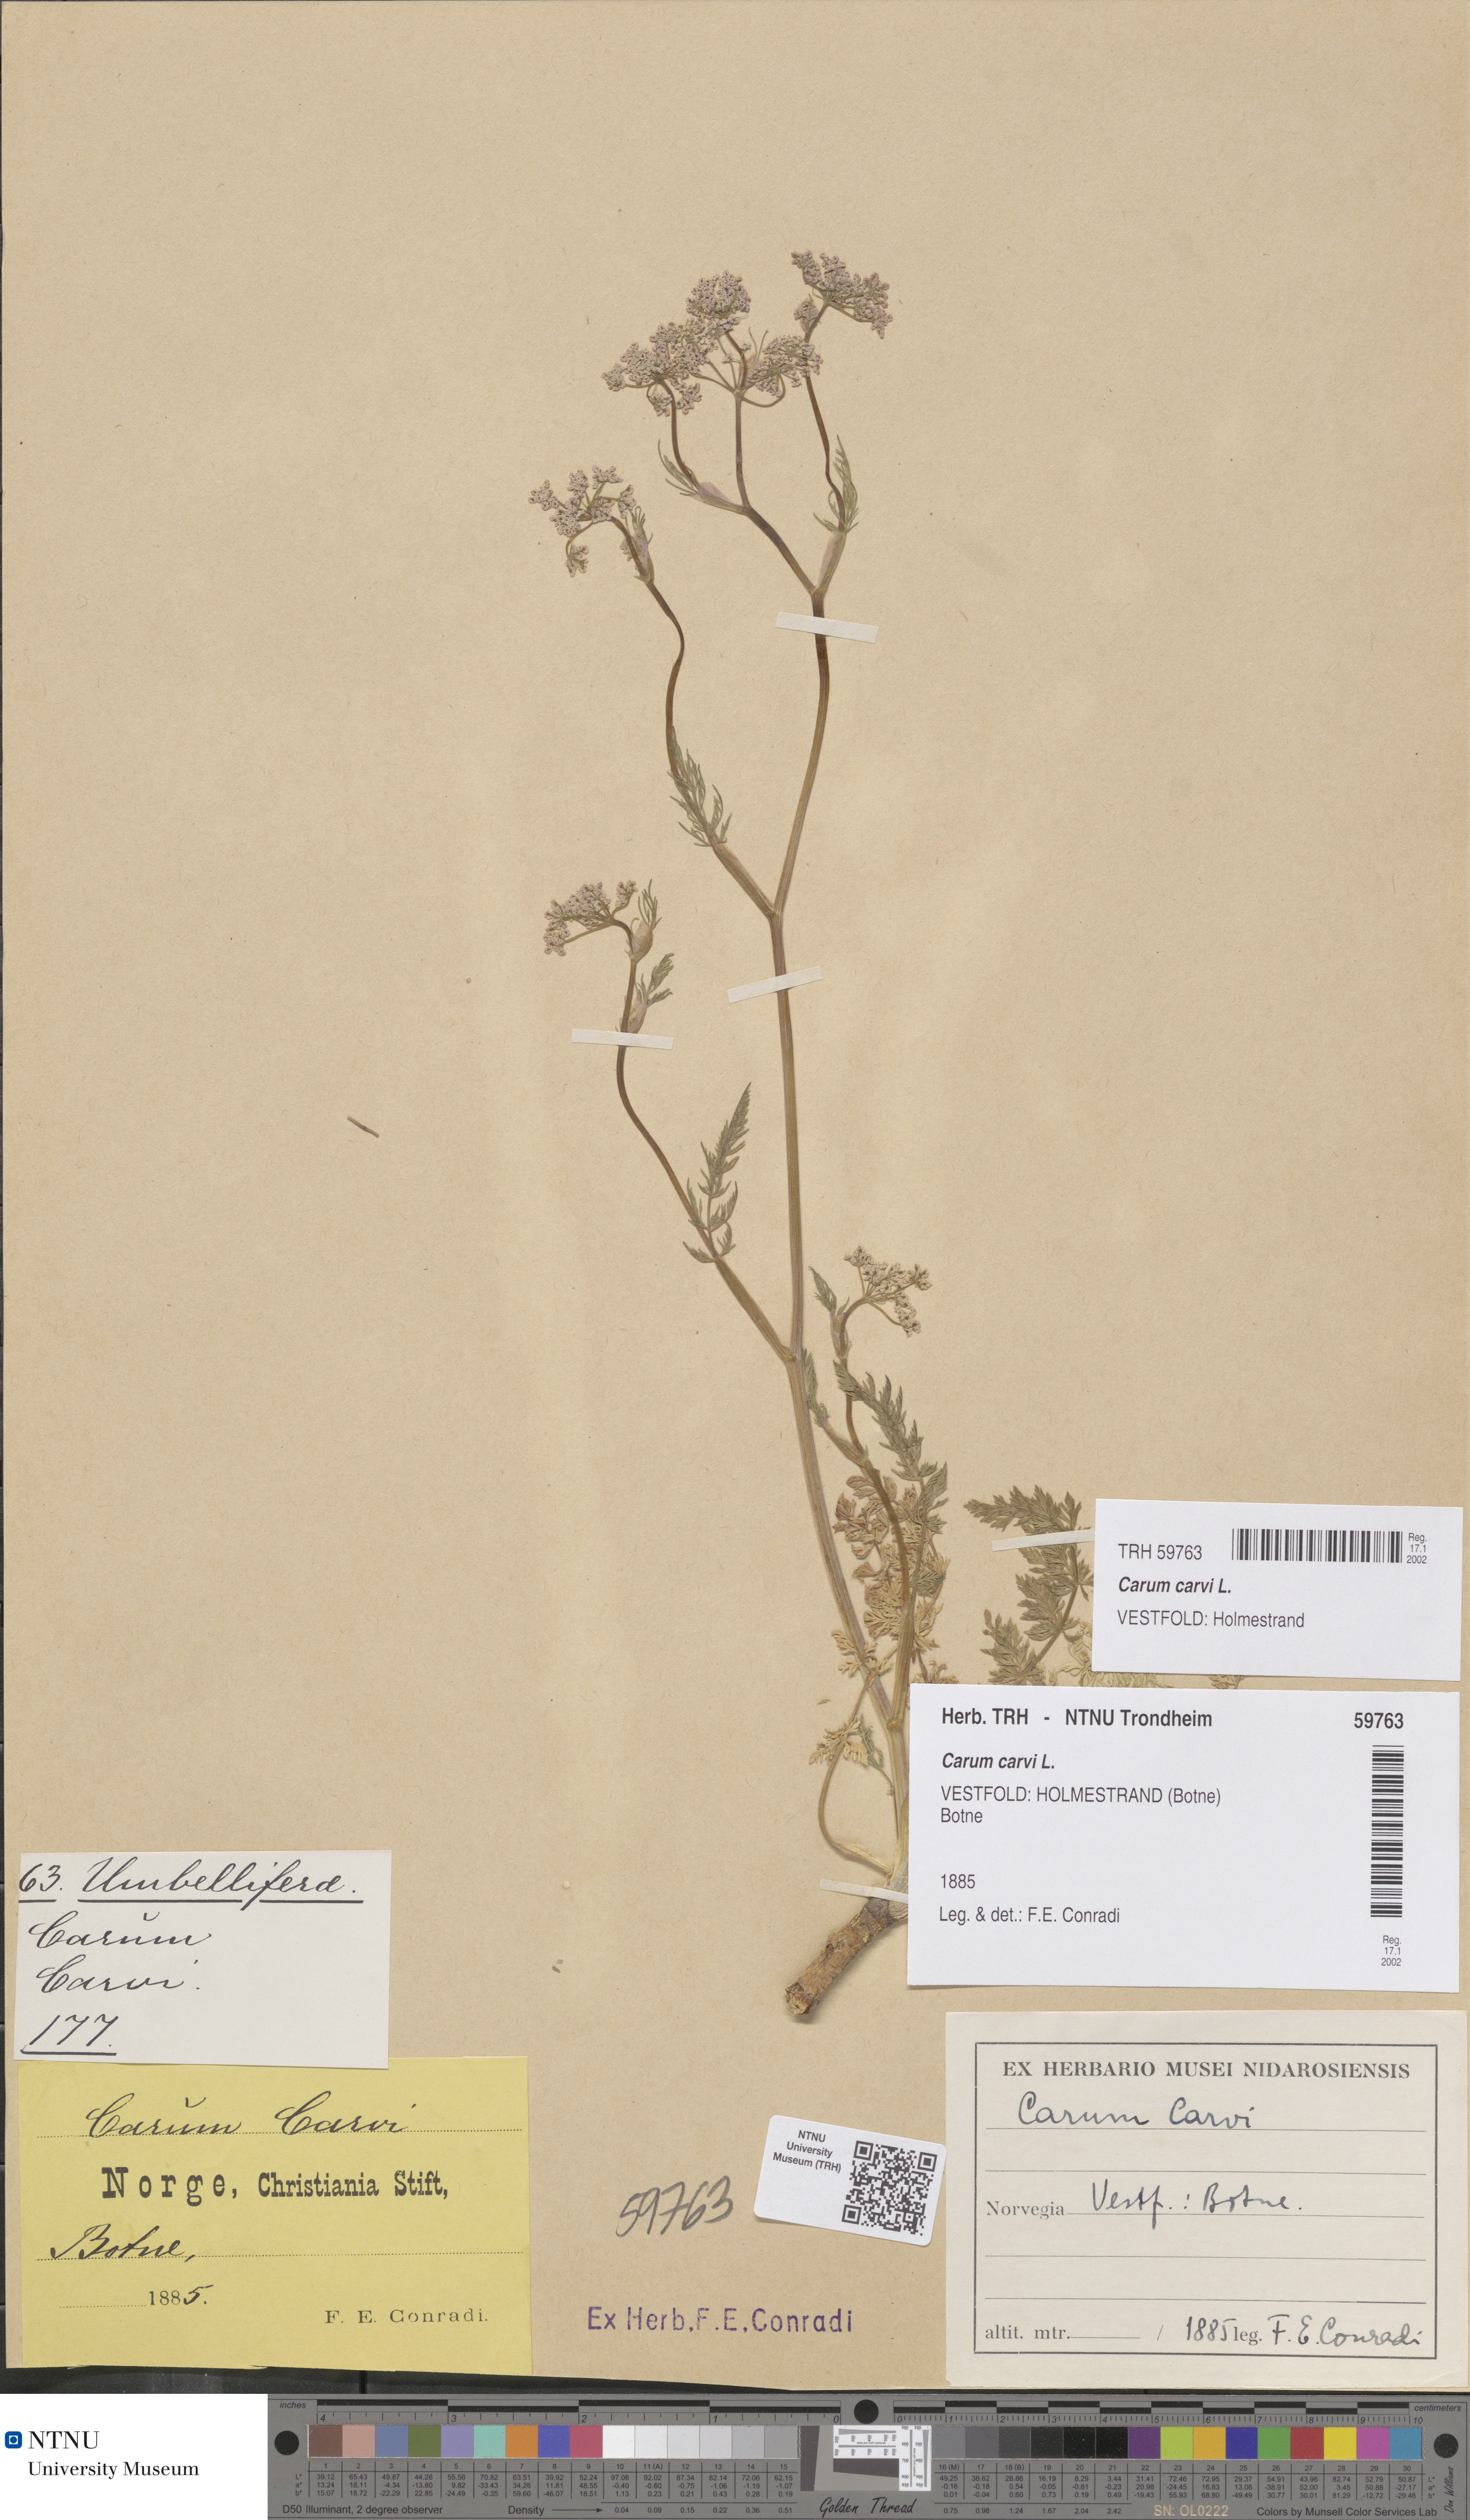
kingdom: Plantae
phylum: Tracheophyta
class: Magnoliopsida
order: Apiales
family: Apiaceae
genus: Carum
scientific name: Carum carvi
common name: Caraway
